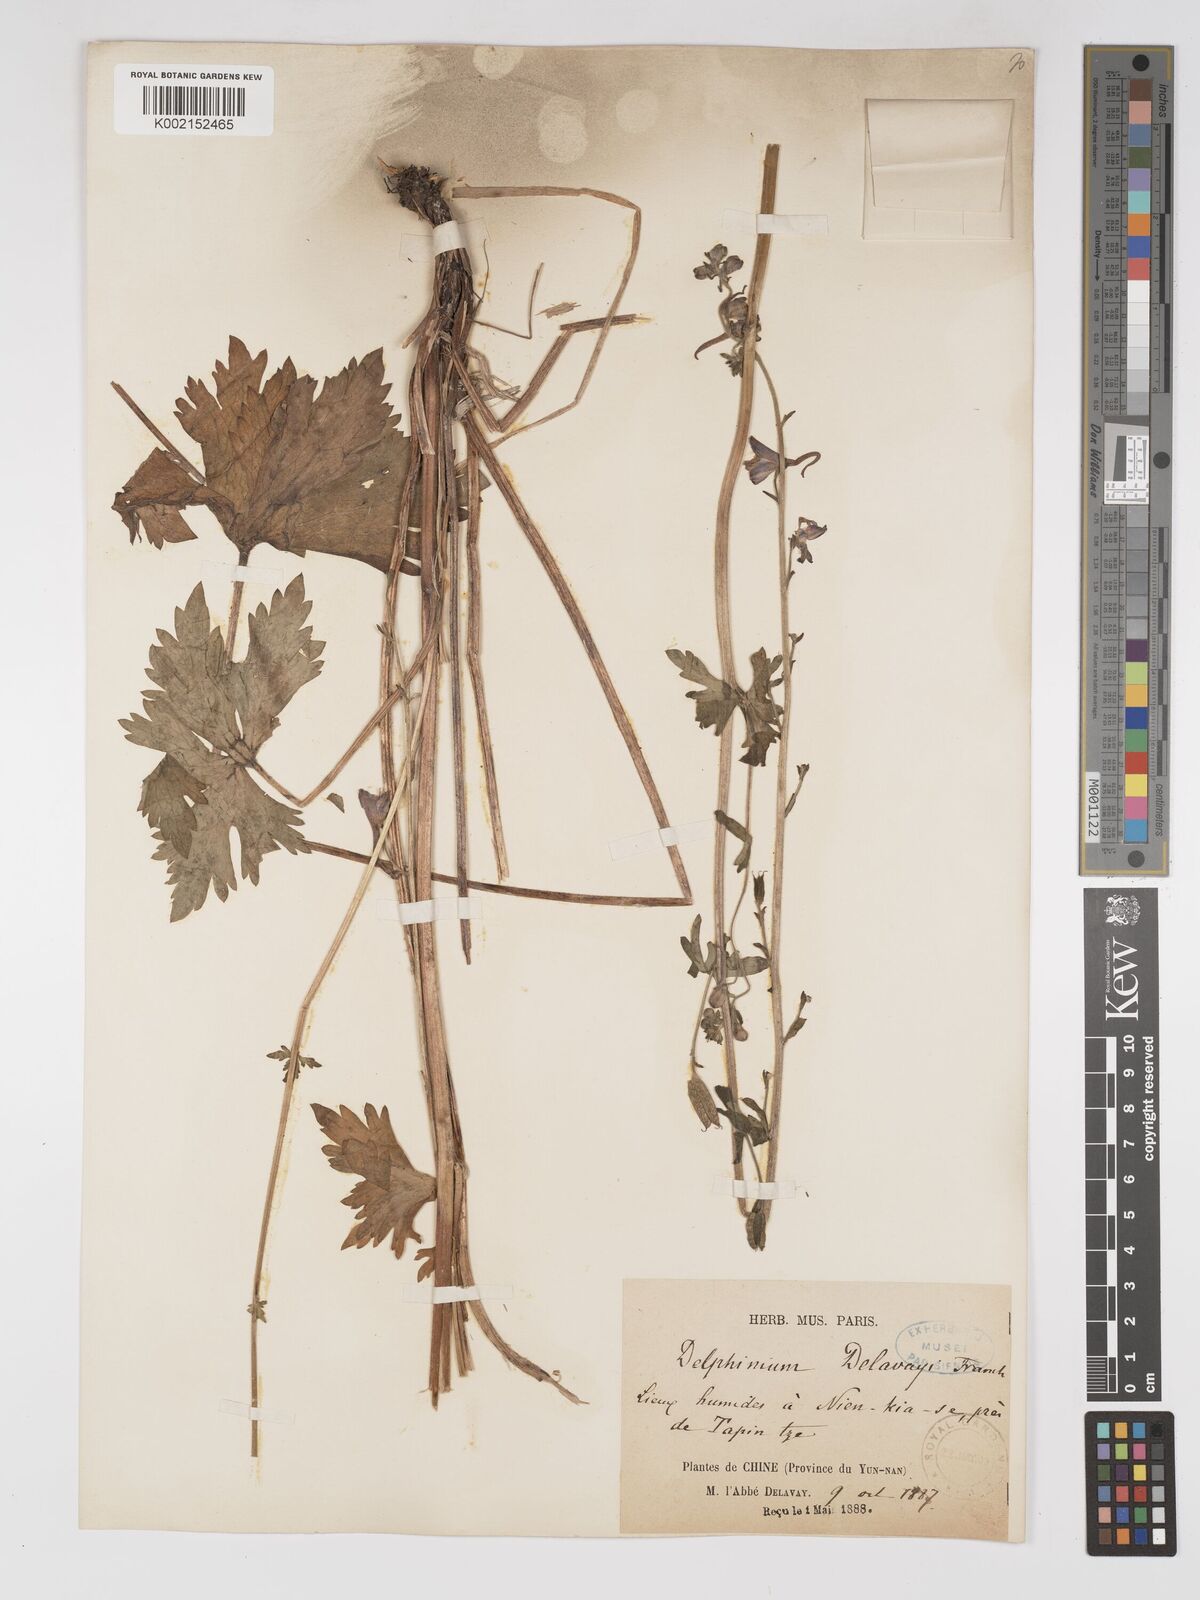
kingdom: Plantae
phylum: Tracheophyta
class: Magnoliopsida
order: Ranunculales
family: Ranunculaceae
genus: Delphinium
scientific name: Delphinium delavayi
